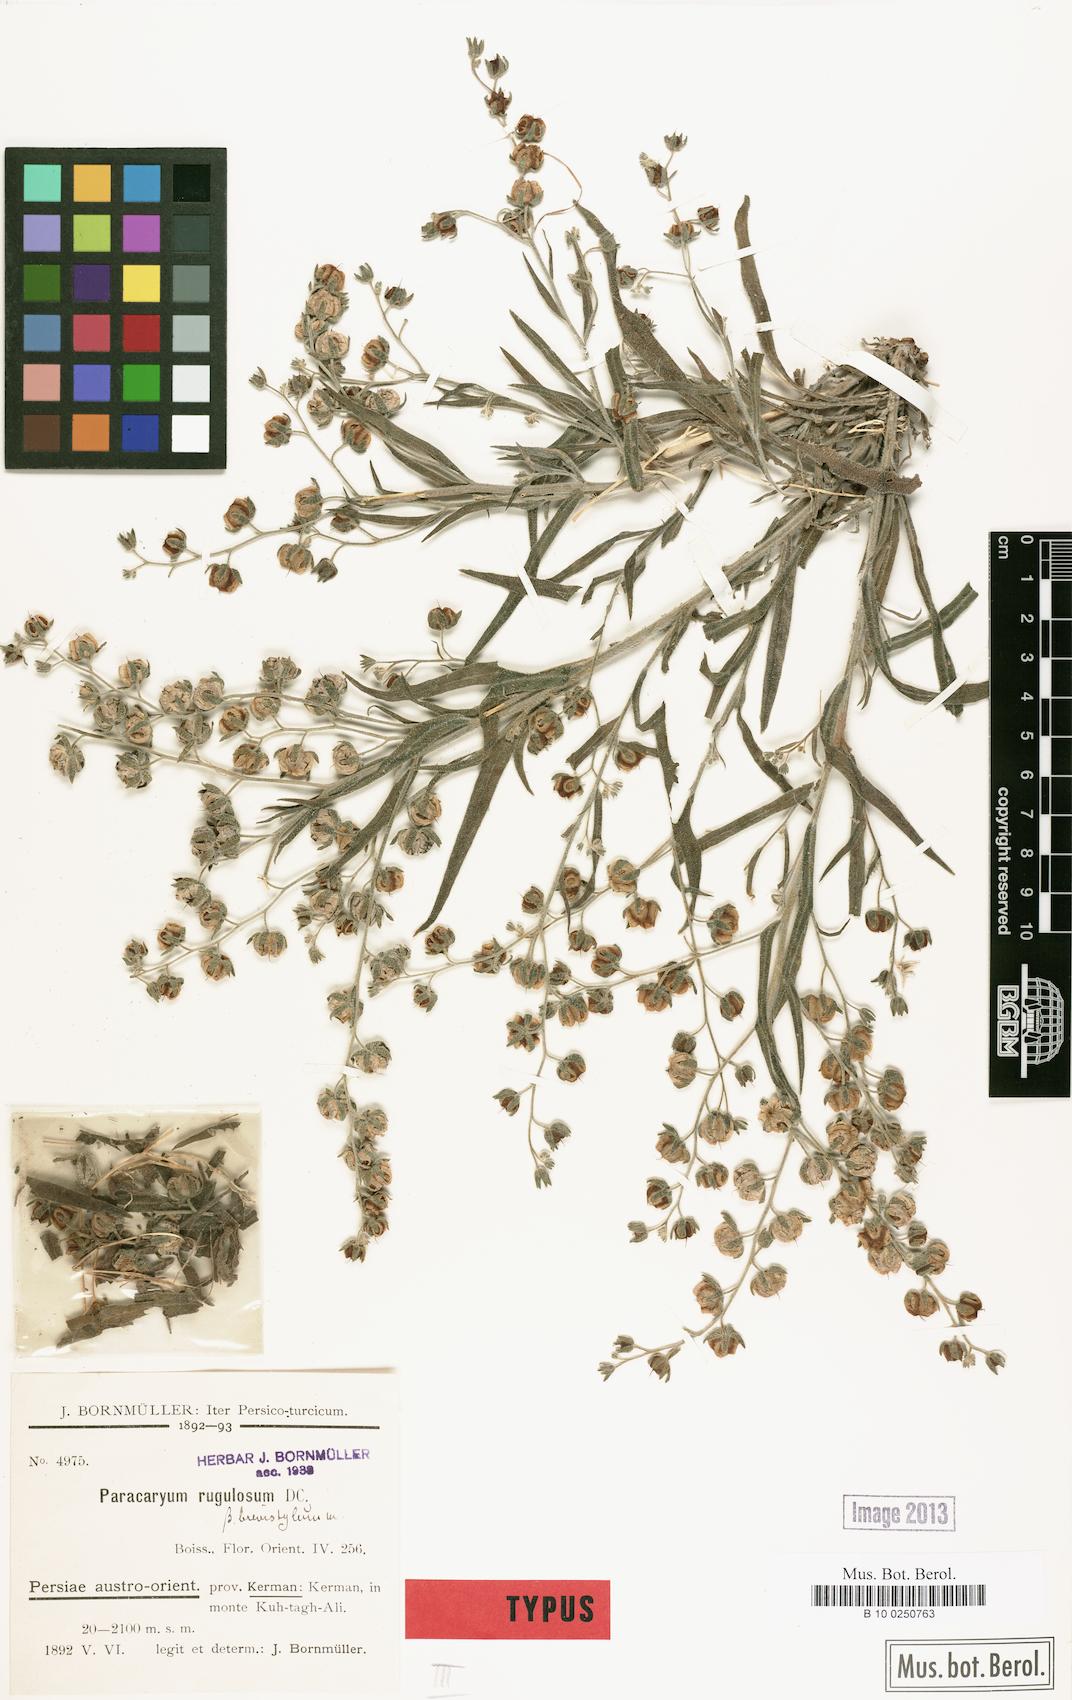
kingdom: Plantae
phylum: Tracheophyta
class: Magnoliopsida
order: Boraginales
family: Boraginaceae
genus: Paracaryum
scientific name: Paracaryum rugulosum
